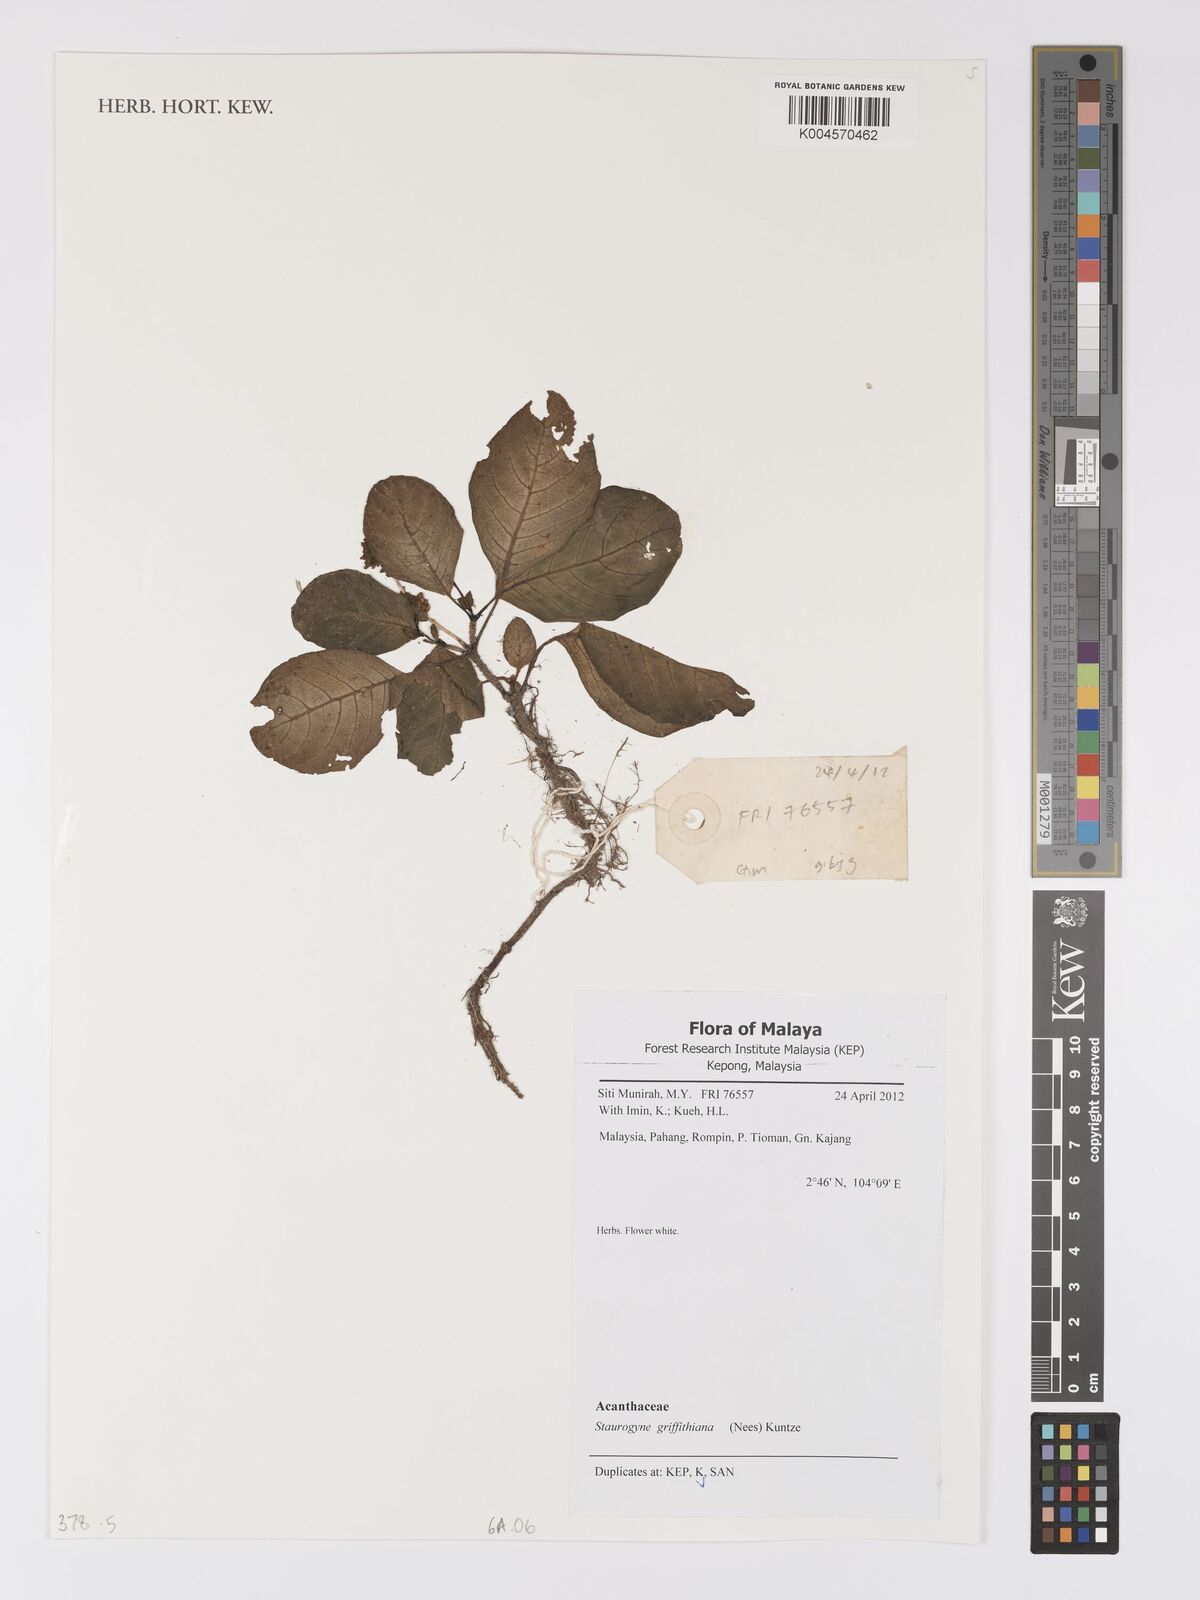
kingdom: Plantae
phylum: Tracheophyta
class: Magnoliopsida
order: Lamiales
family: Acanthaceae
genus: Staurogyne
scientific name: Staurogyne griffithiana
